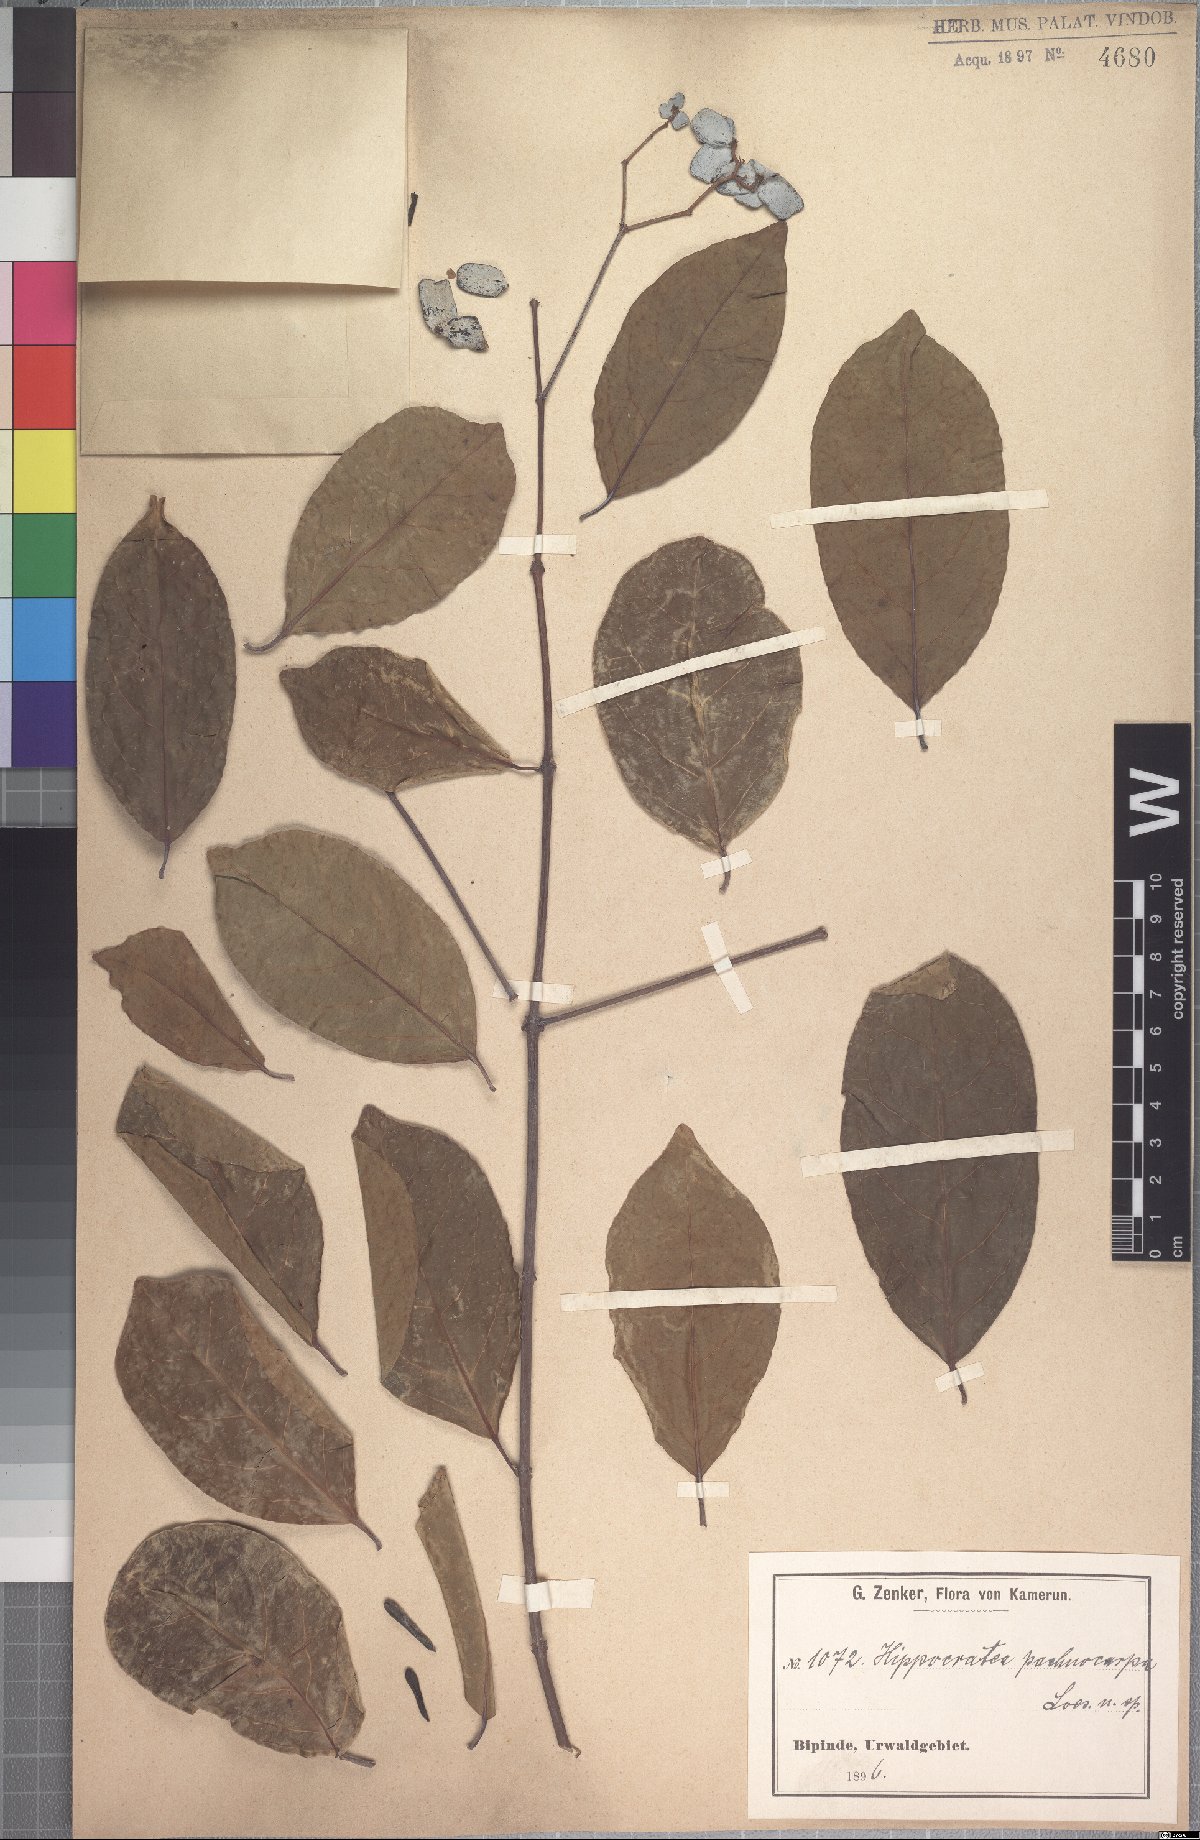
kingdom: Plantae
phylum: Tracheophyta
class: Magnoliopsida
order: Celastrales
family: Celastraceae
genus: Hippocratea
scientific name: Hippocratea myriantha
